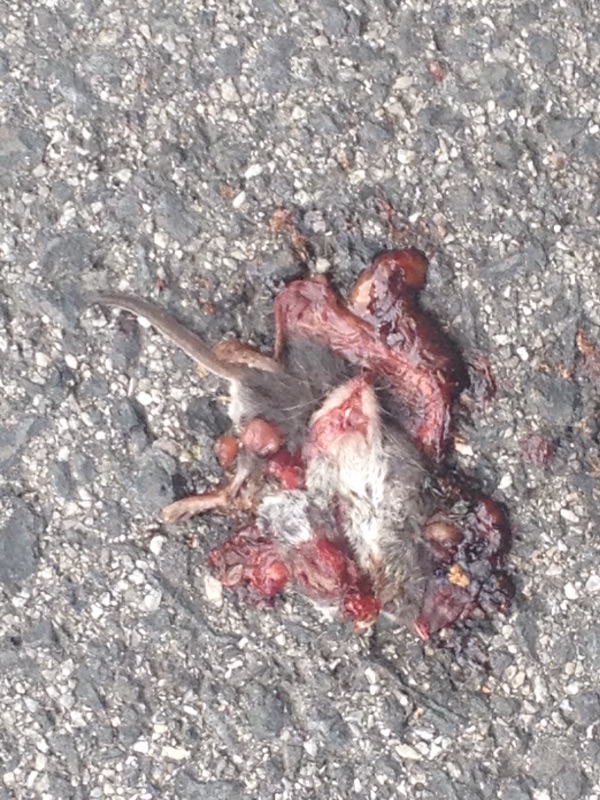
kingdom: Animalia
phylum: Chordata
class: Mammalia
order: Soricomorpha
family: Soricidae
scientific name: Soricidae
